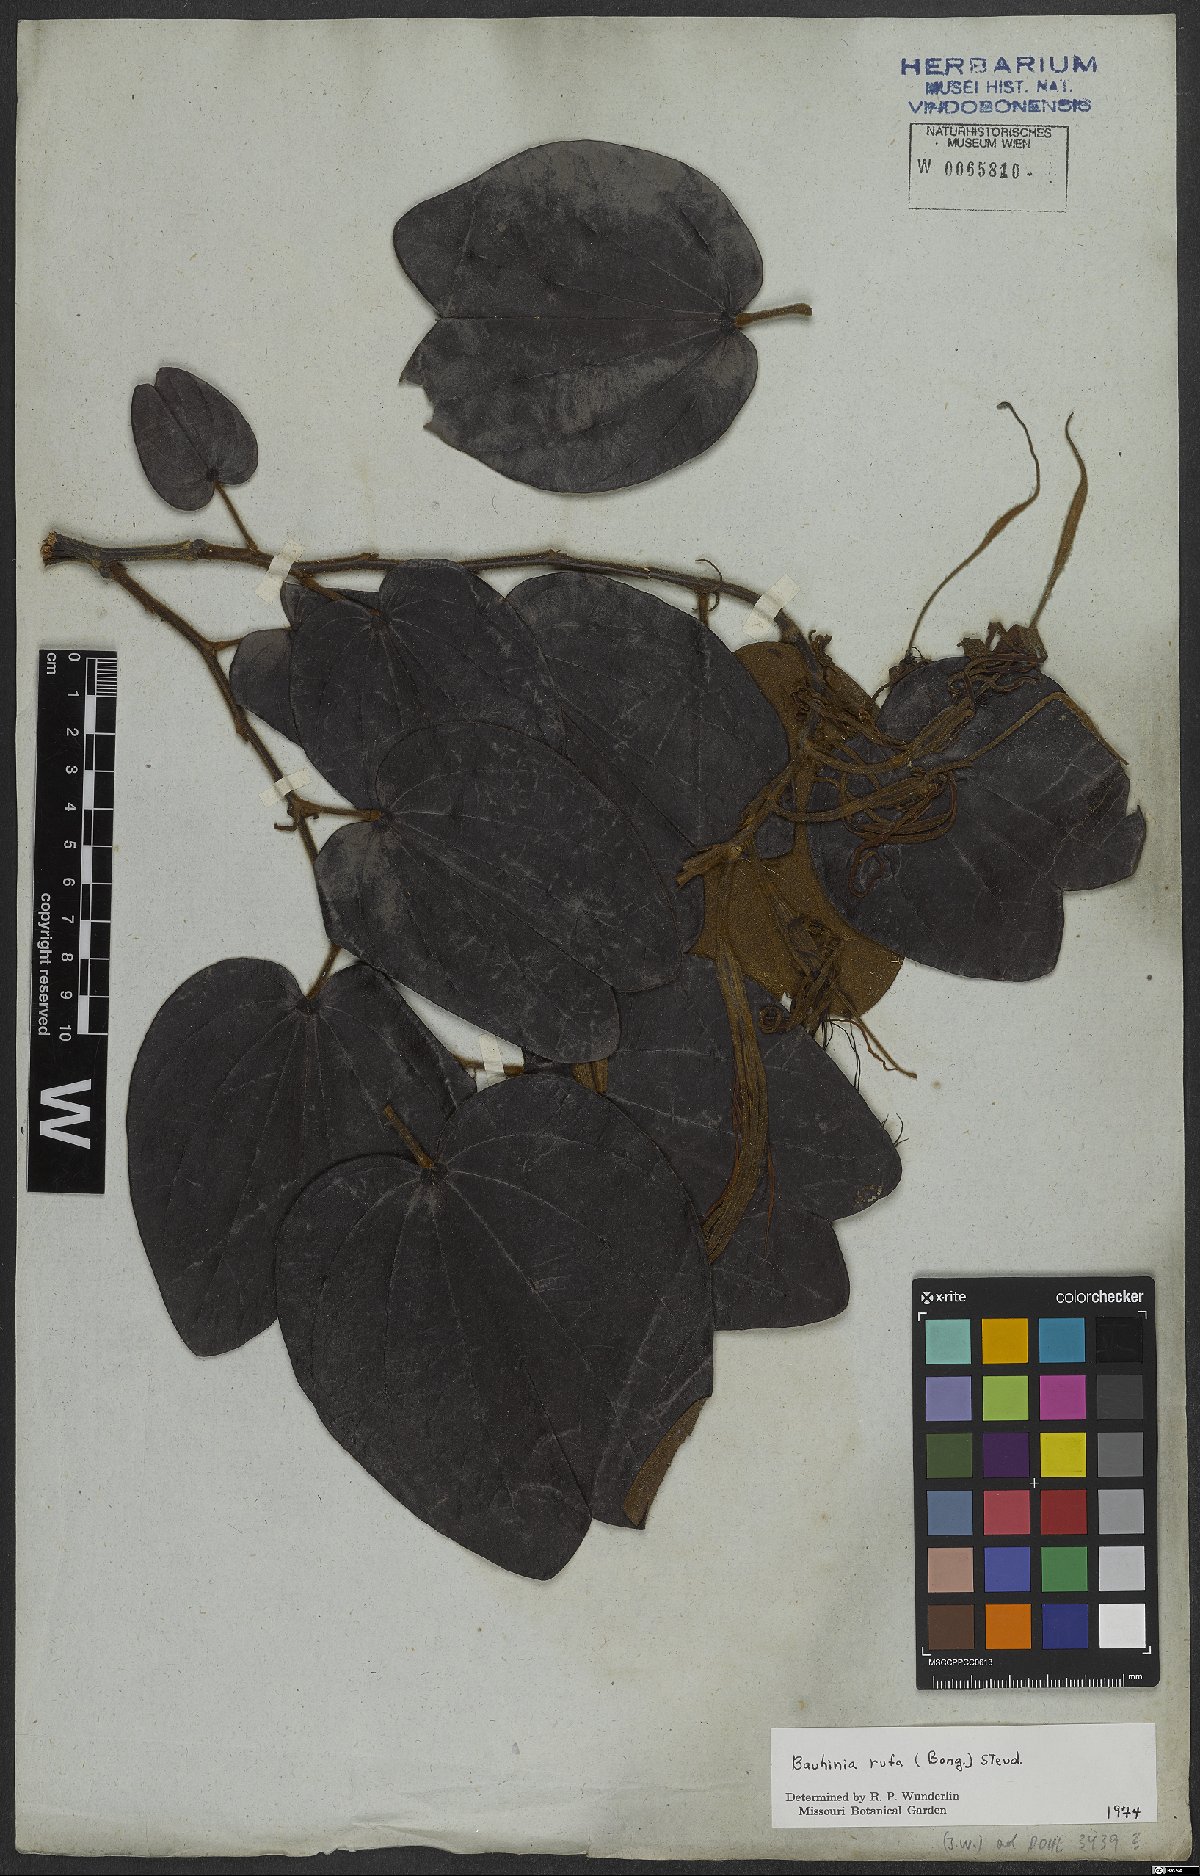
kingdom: Plantae
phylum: Tracheophyta
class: Magnoliopsida
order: Fabales
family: Fabaceae
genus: Bauhinia
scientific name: Bauhinia rufa
